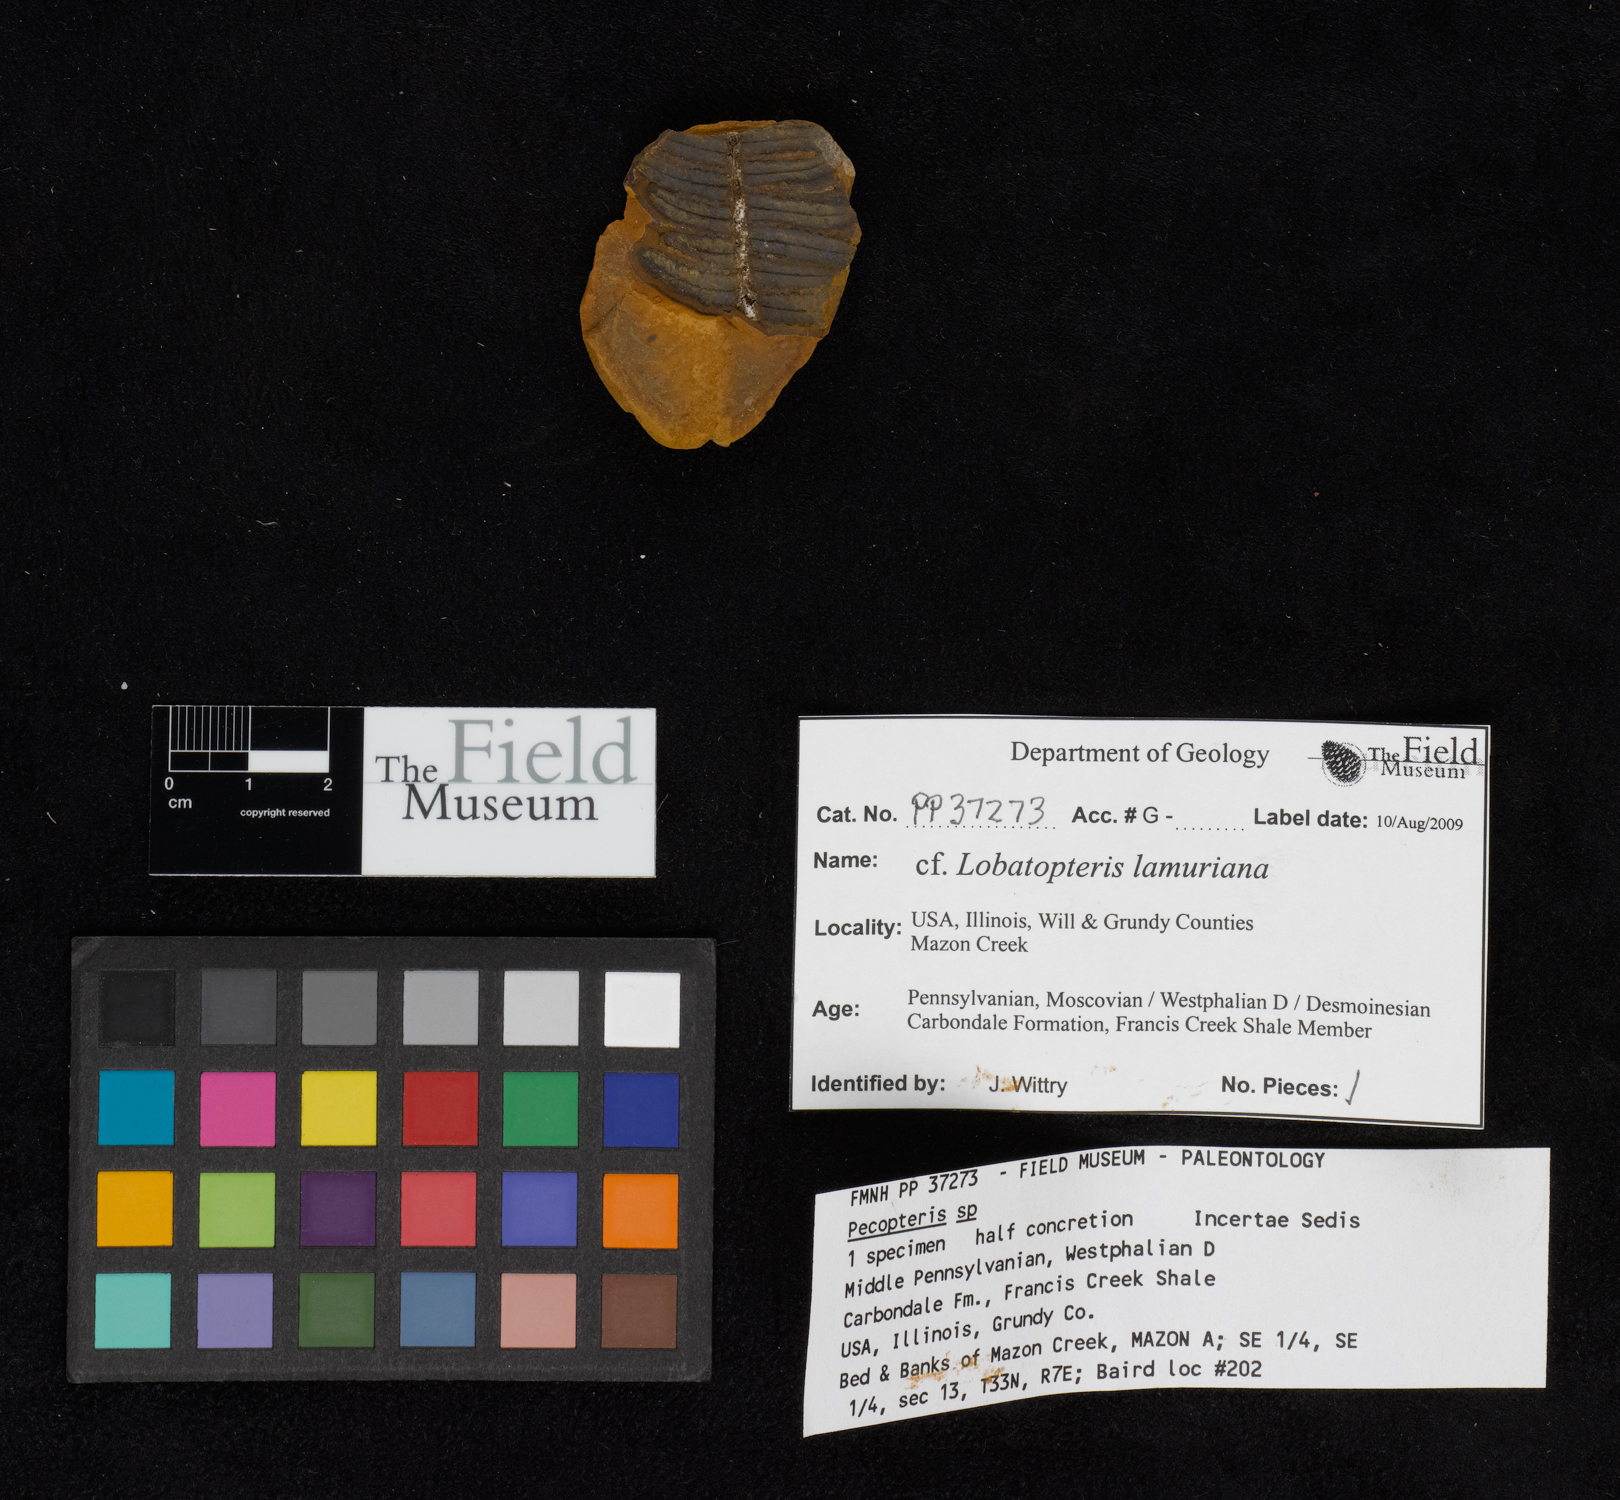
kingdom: Plantae
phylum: Tracheophyta
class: Polypodiopsida
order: Marattiales
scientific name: Marattiales
